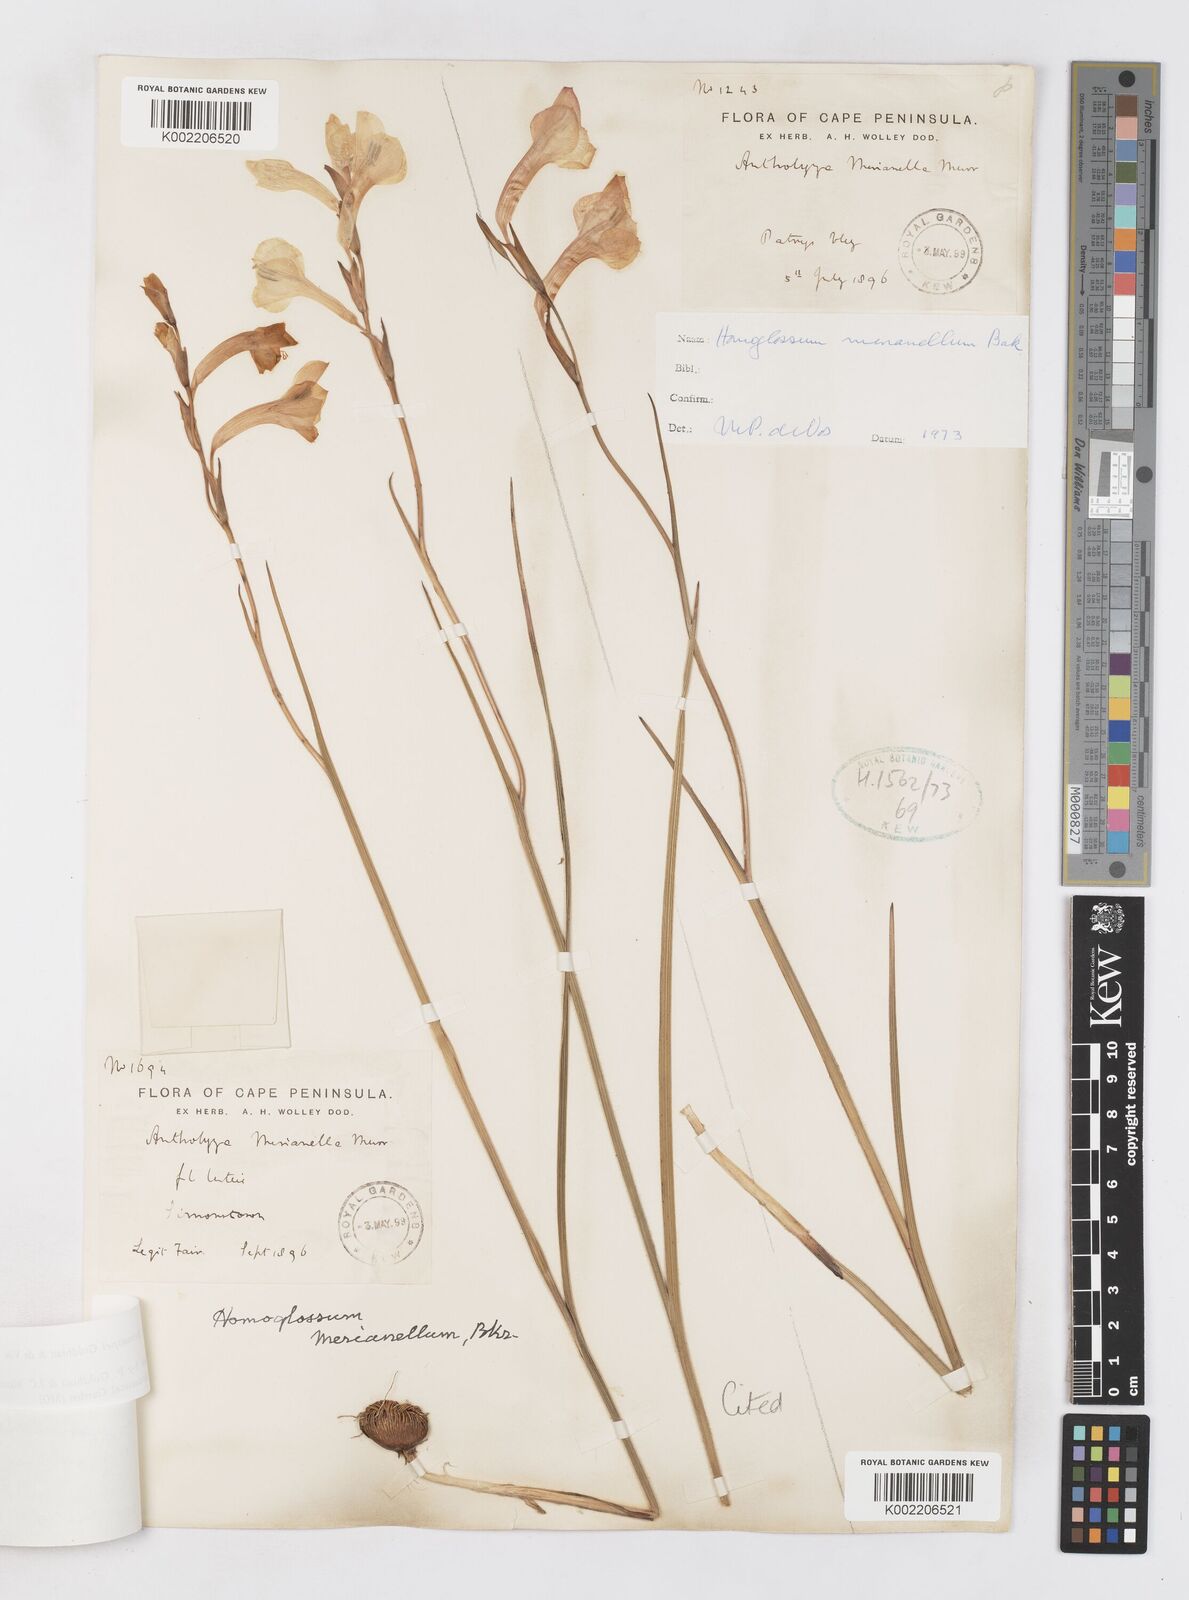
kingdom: Plantae
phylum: Tracheophyta
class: Liliopsida
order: Asparagales
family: Iridaceae
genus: Gladiolus
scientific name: Gladiolus merianellus
